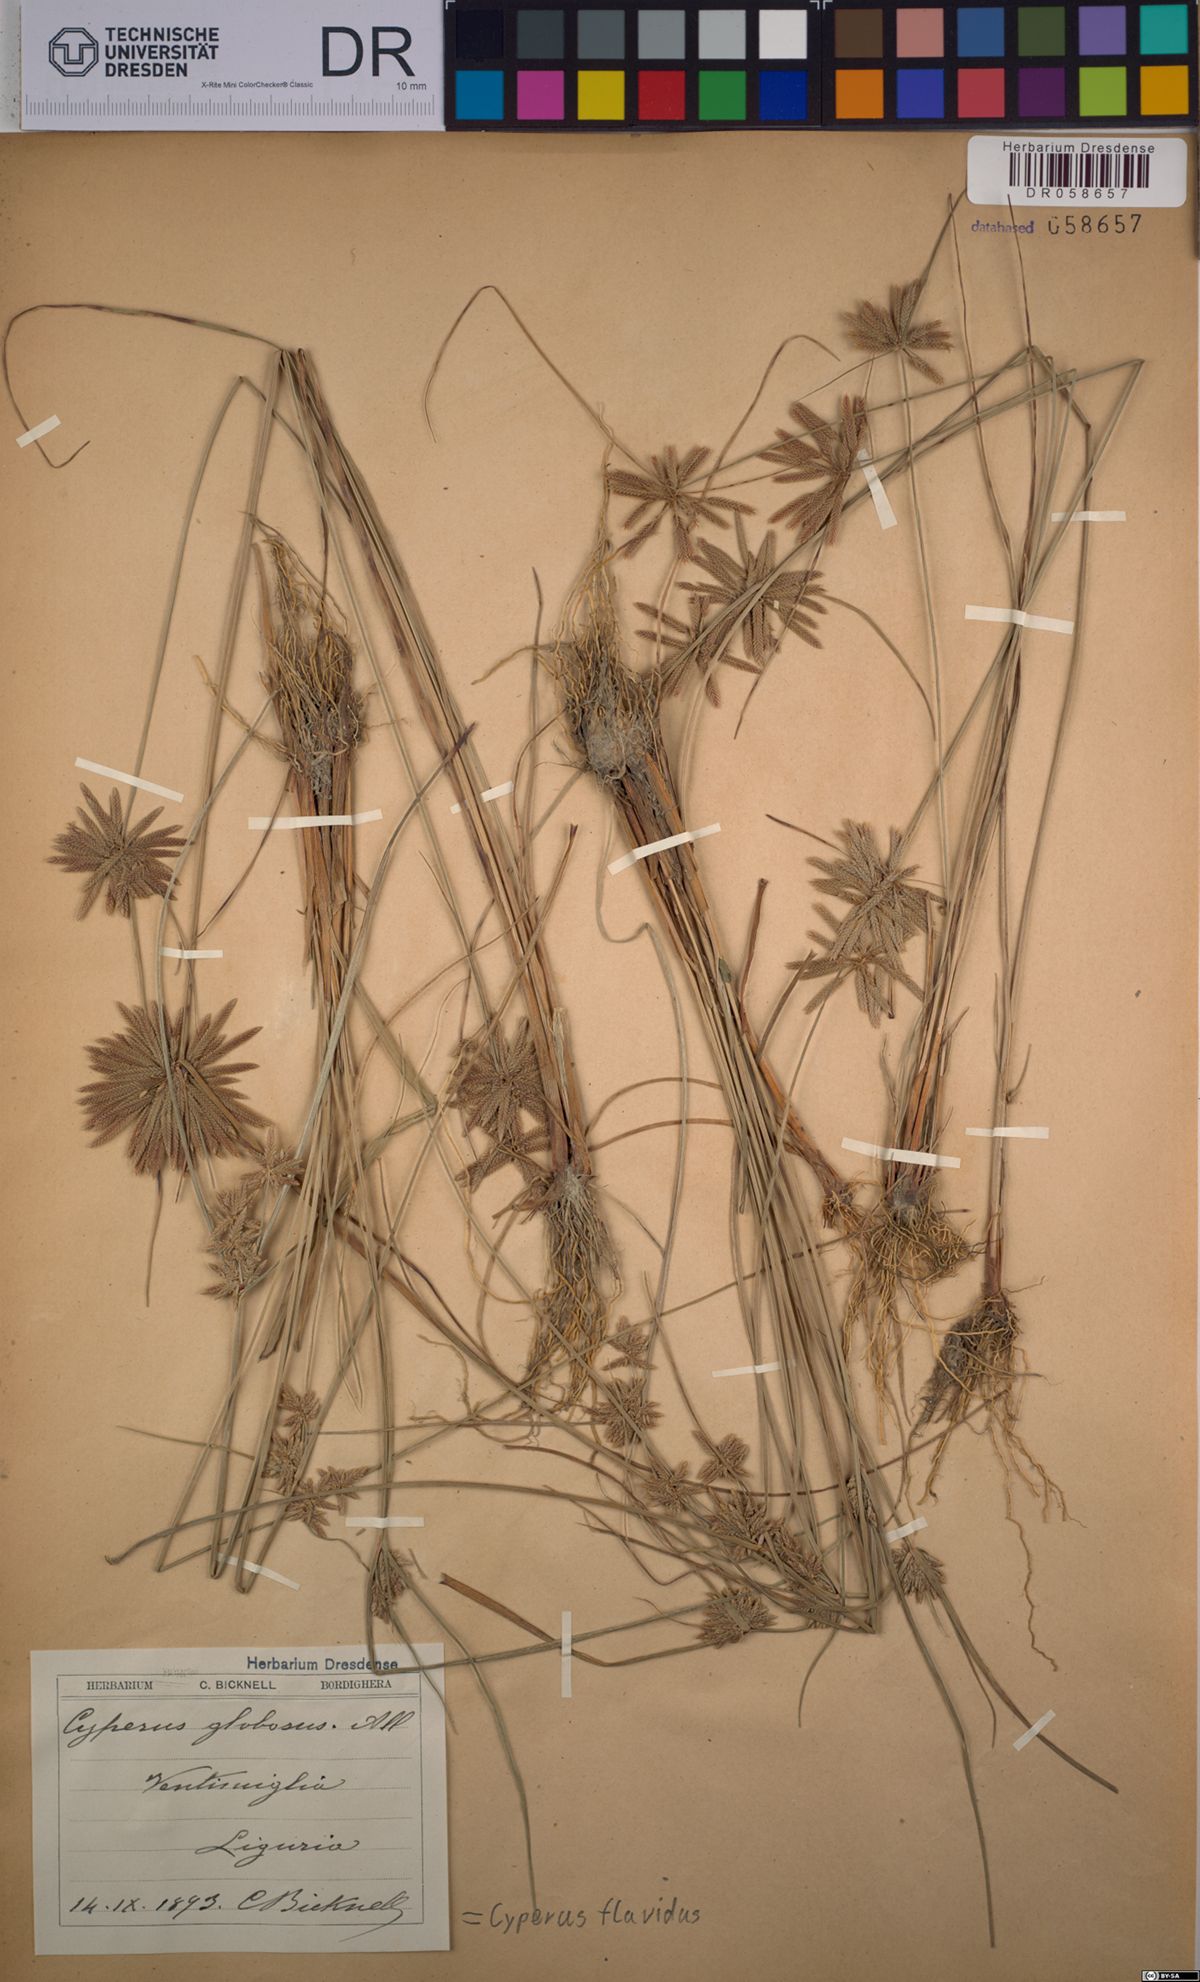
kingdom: Plantae
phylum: Tracheophyta
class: Liliopsida
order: Poales
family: Cyperaceae
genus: Cyperus
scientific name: Cyperus flavidus
